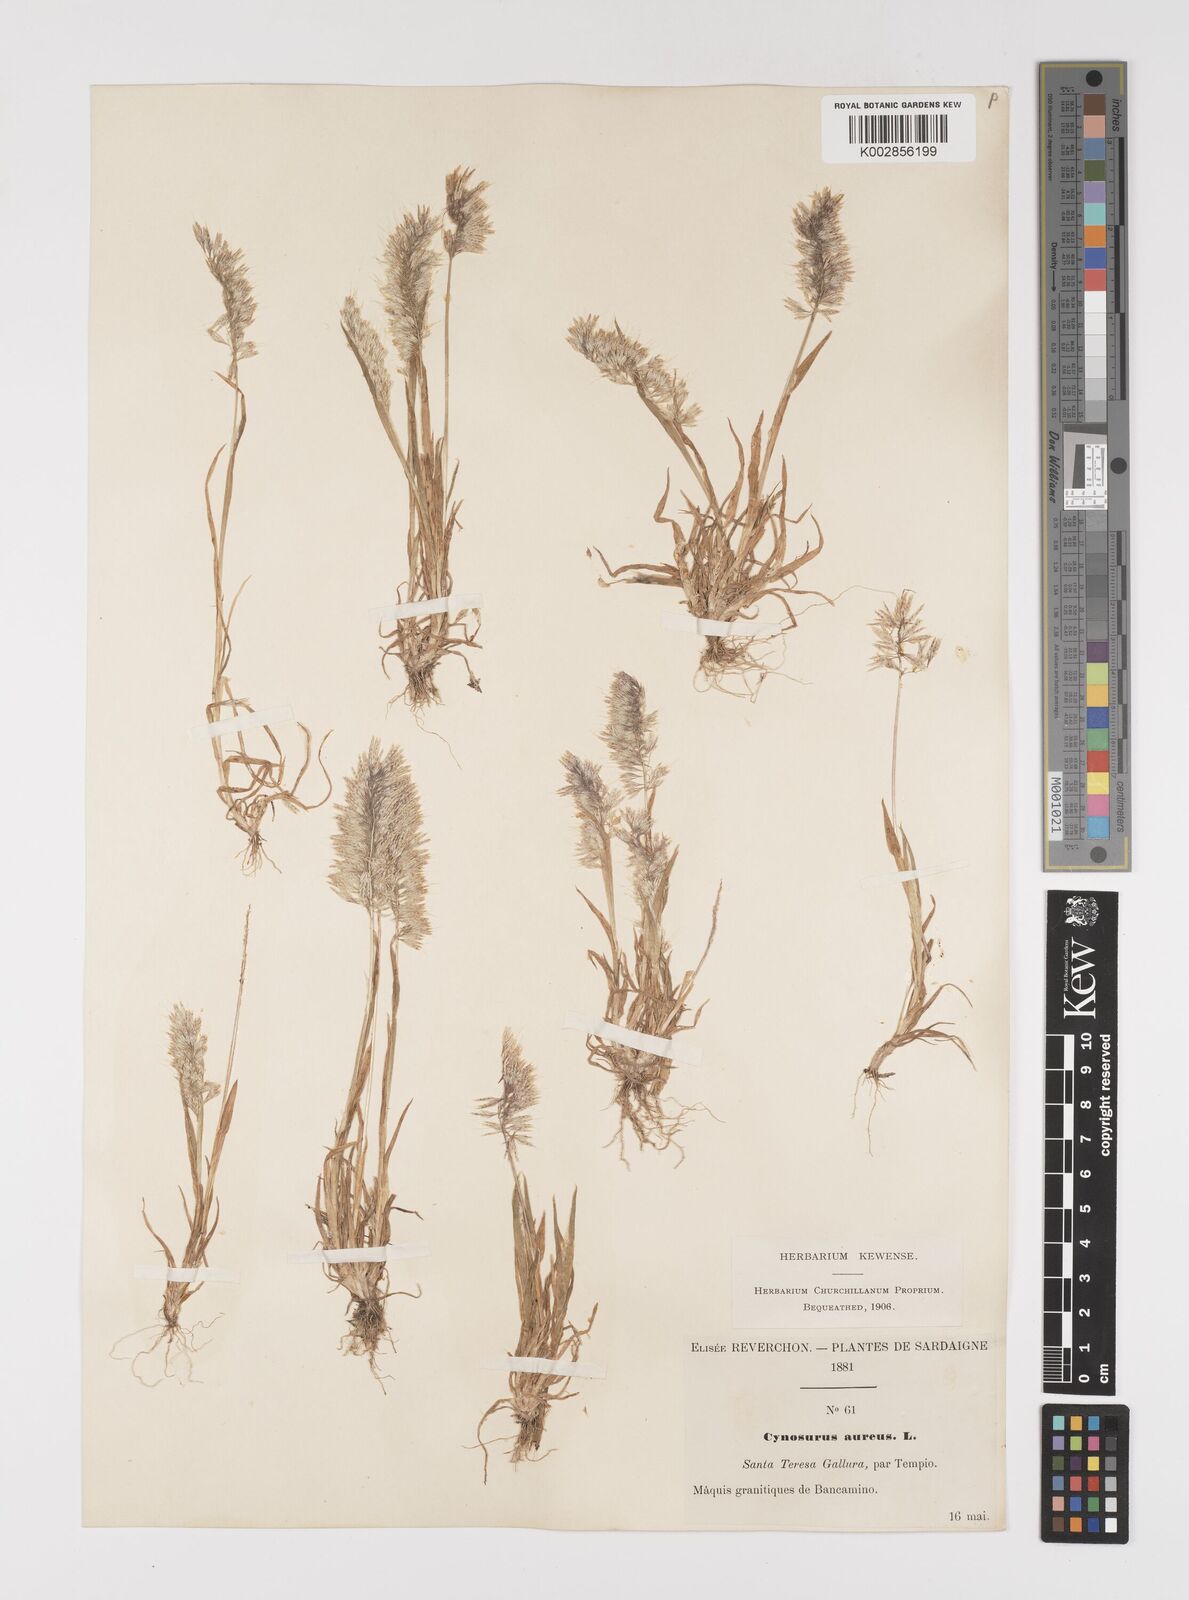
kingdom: Plantae
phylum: Tracheophyta
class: Liliopsida
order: Poales
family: Poaceae
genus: Lamarckia
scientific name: Lamarckia aurea
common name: Golden dog's-tail
